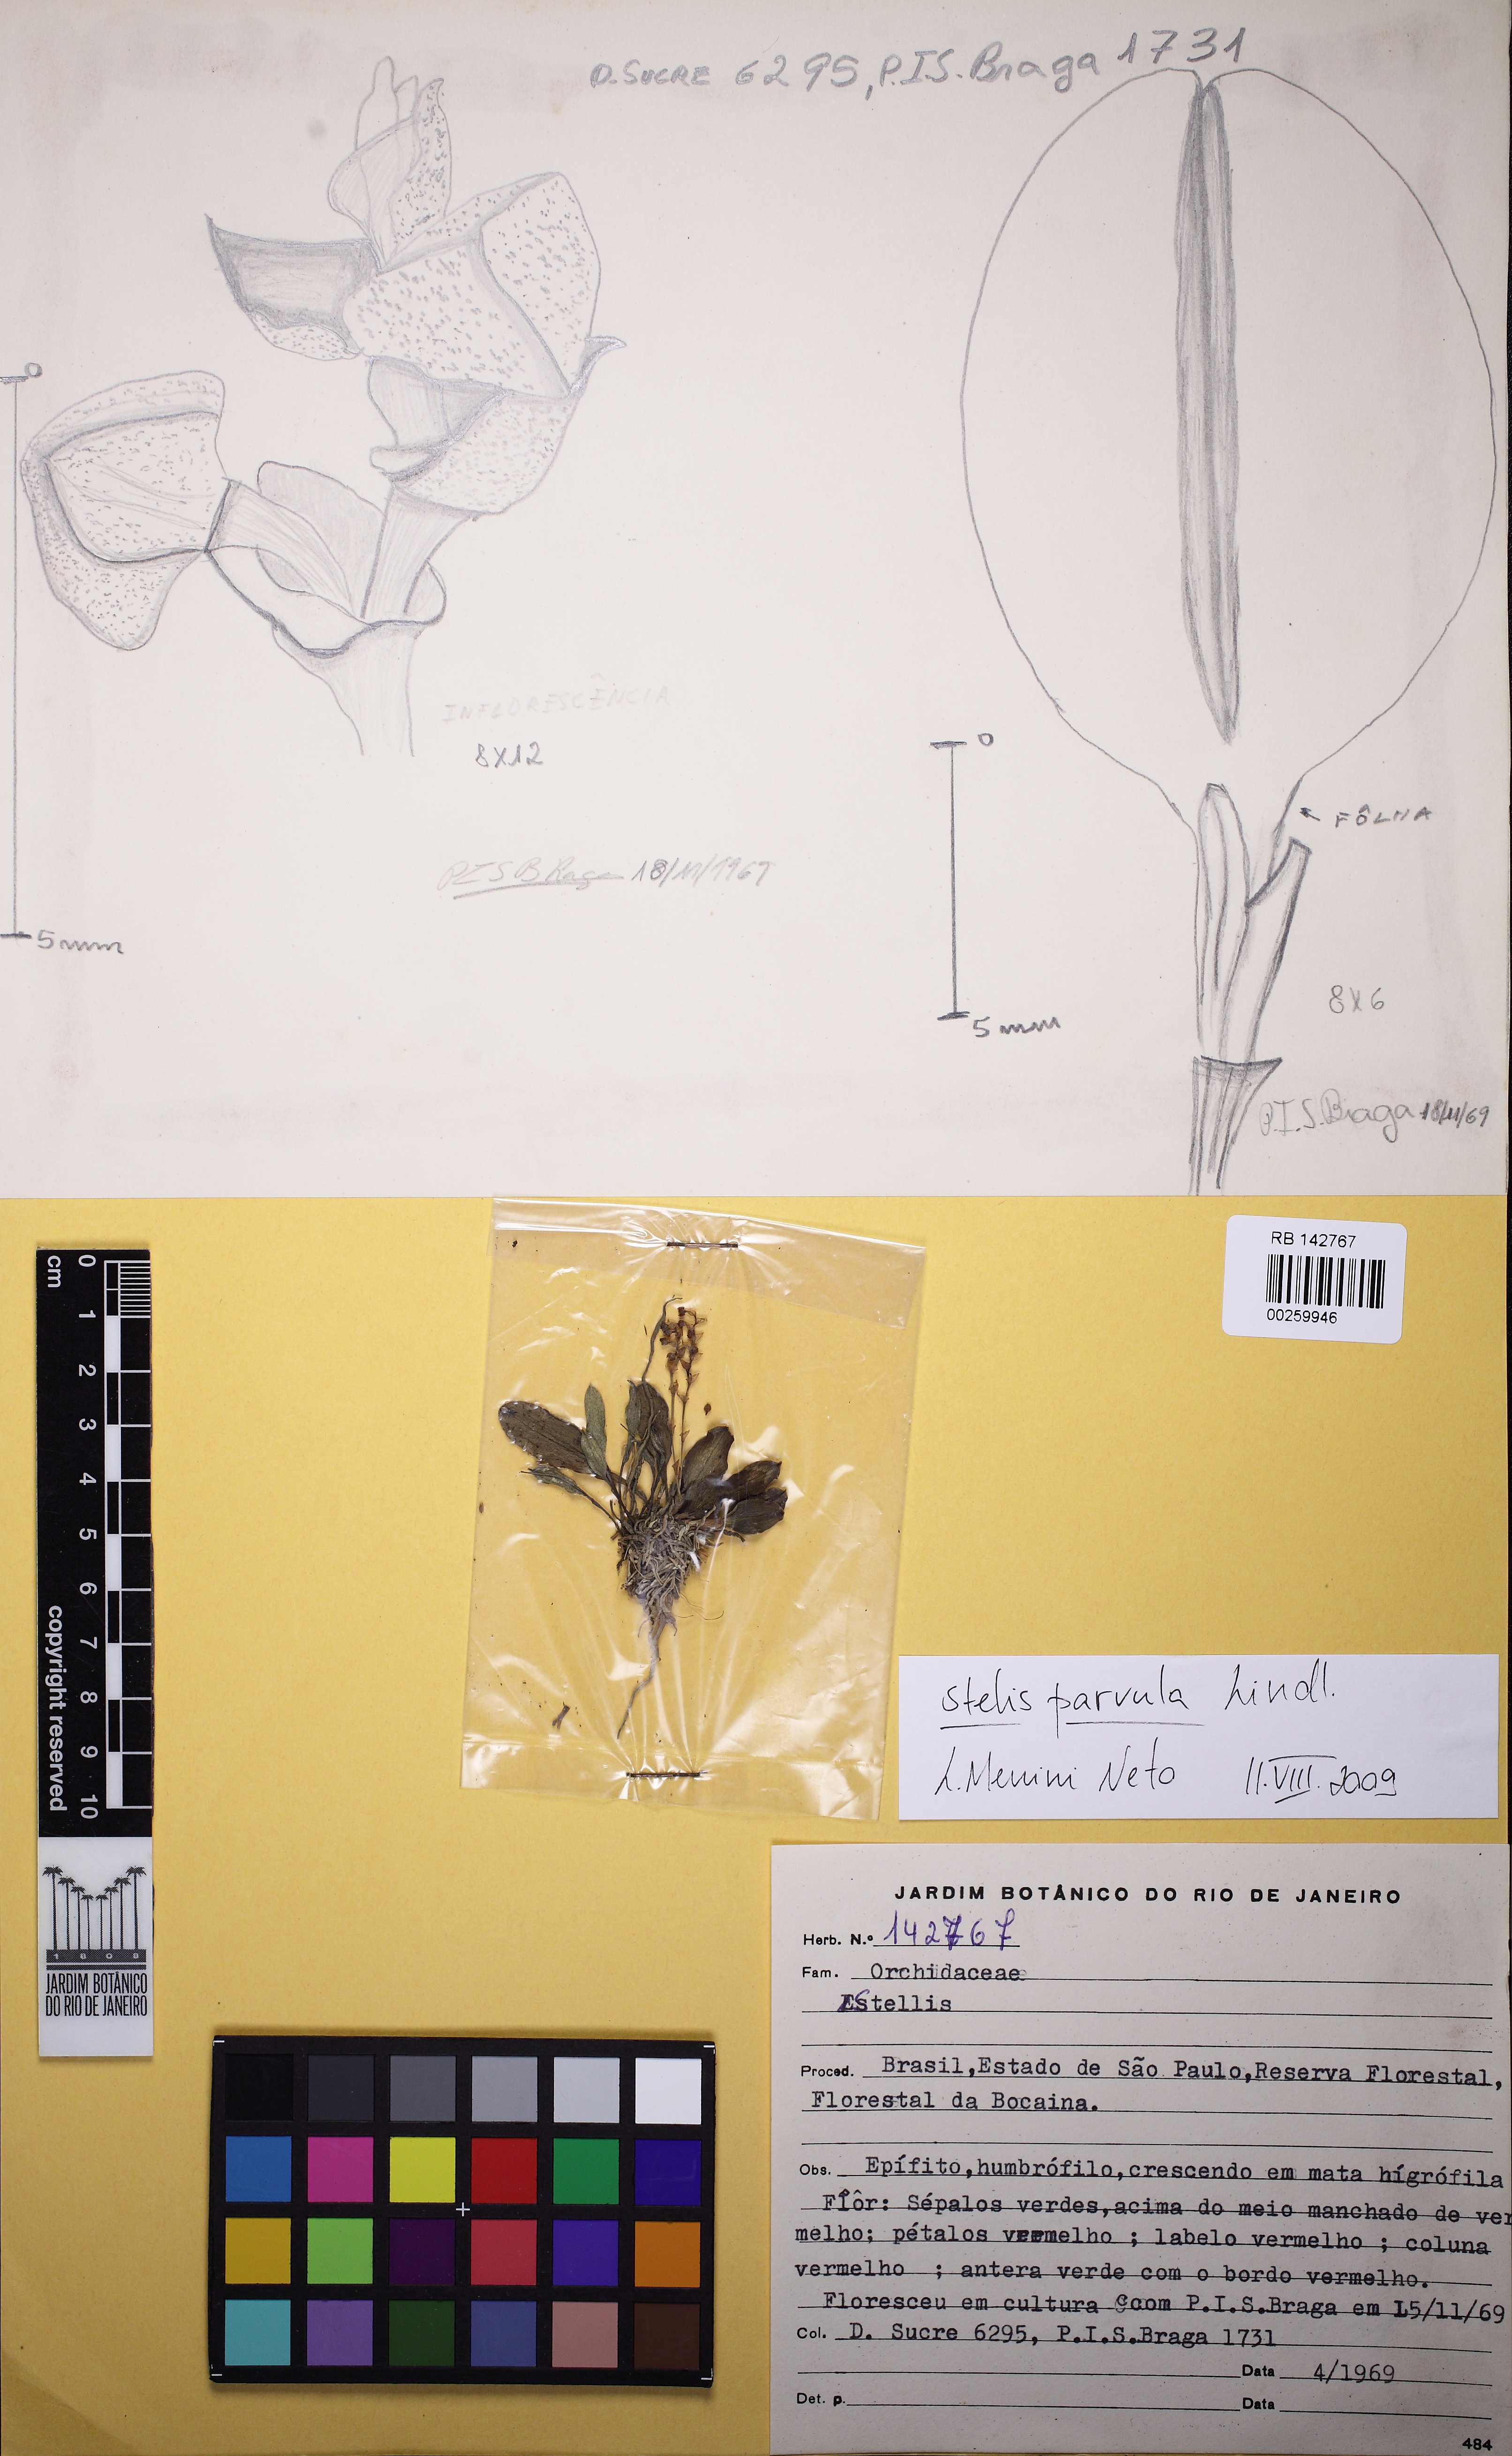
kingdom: Plantae
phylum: Tracheophyta
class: Liliopsida
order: Asparagales
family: Orchidaceae
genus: Stelis
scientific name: Stelis parvula
